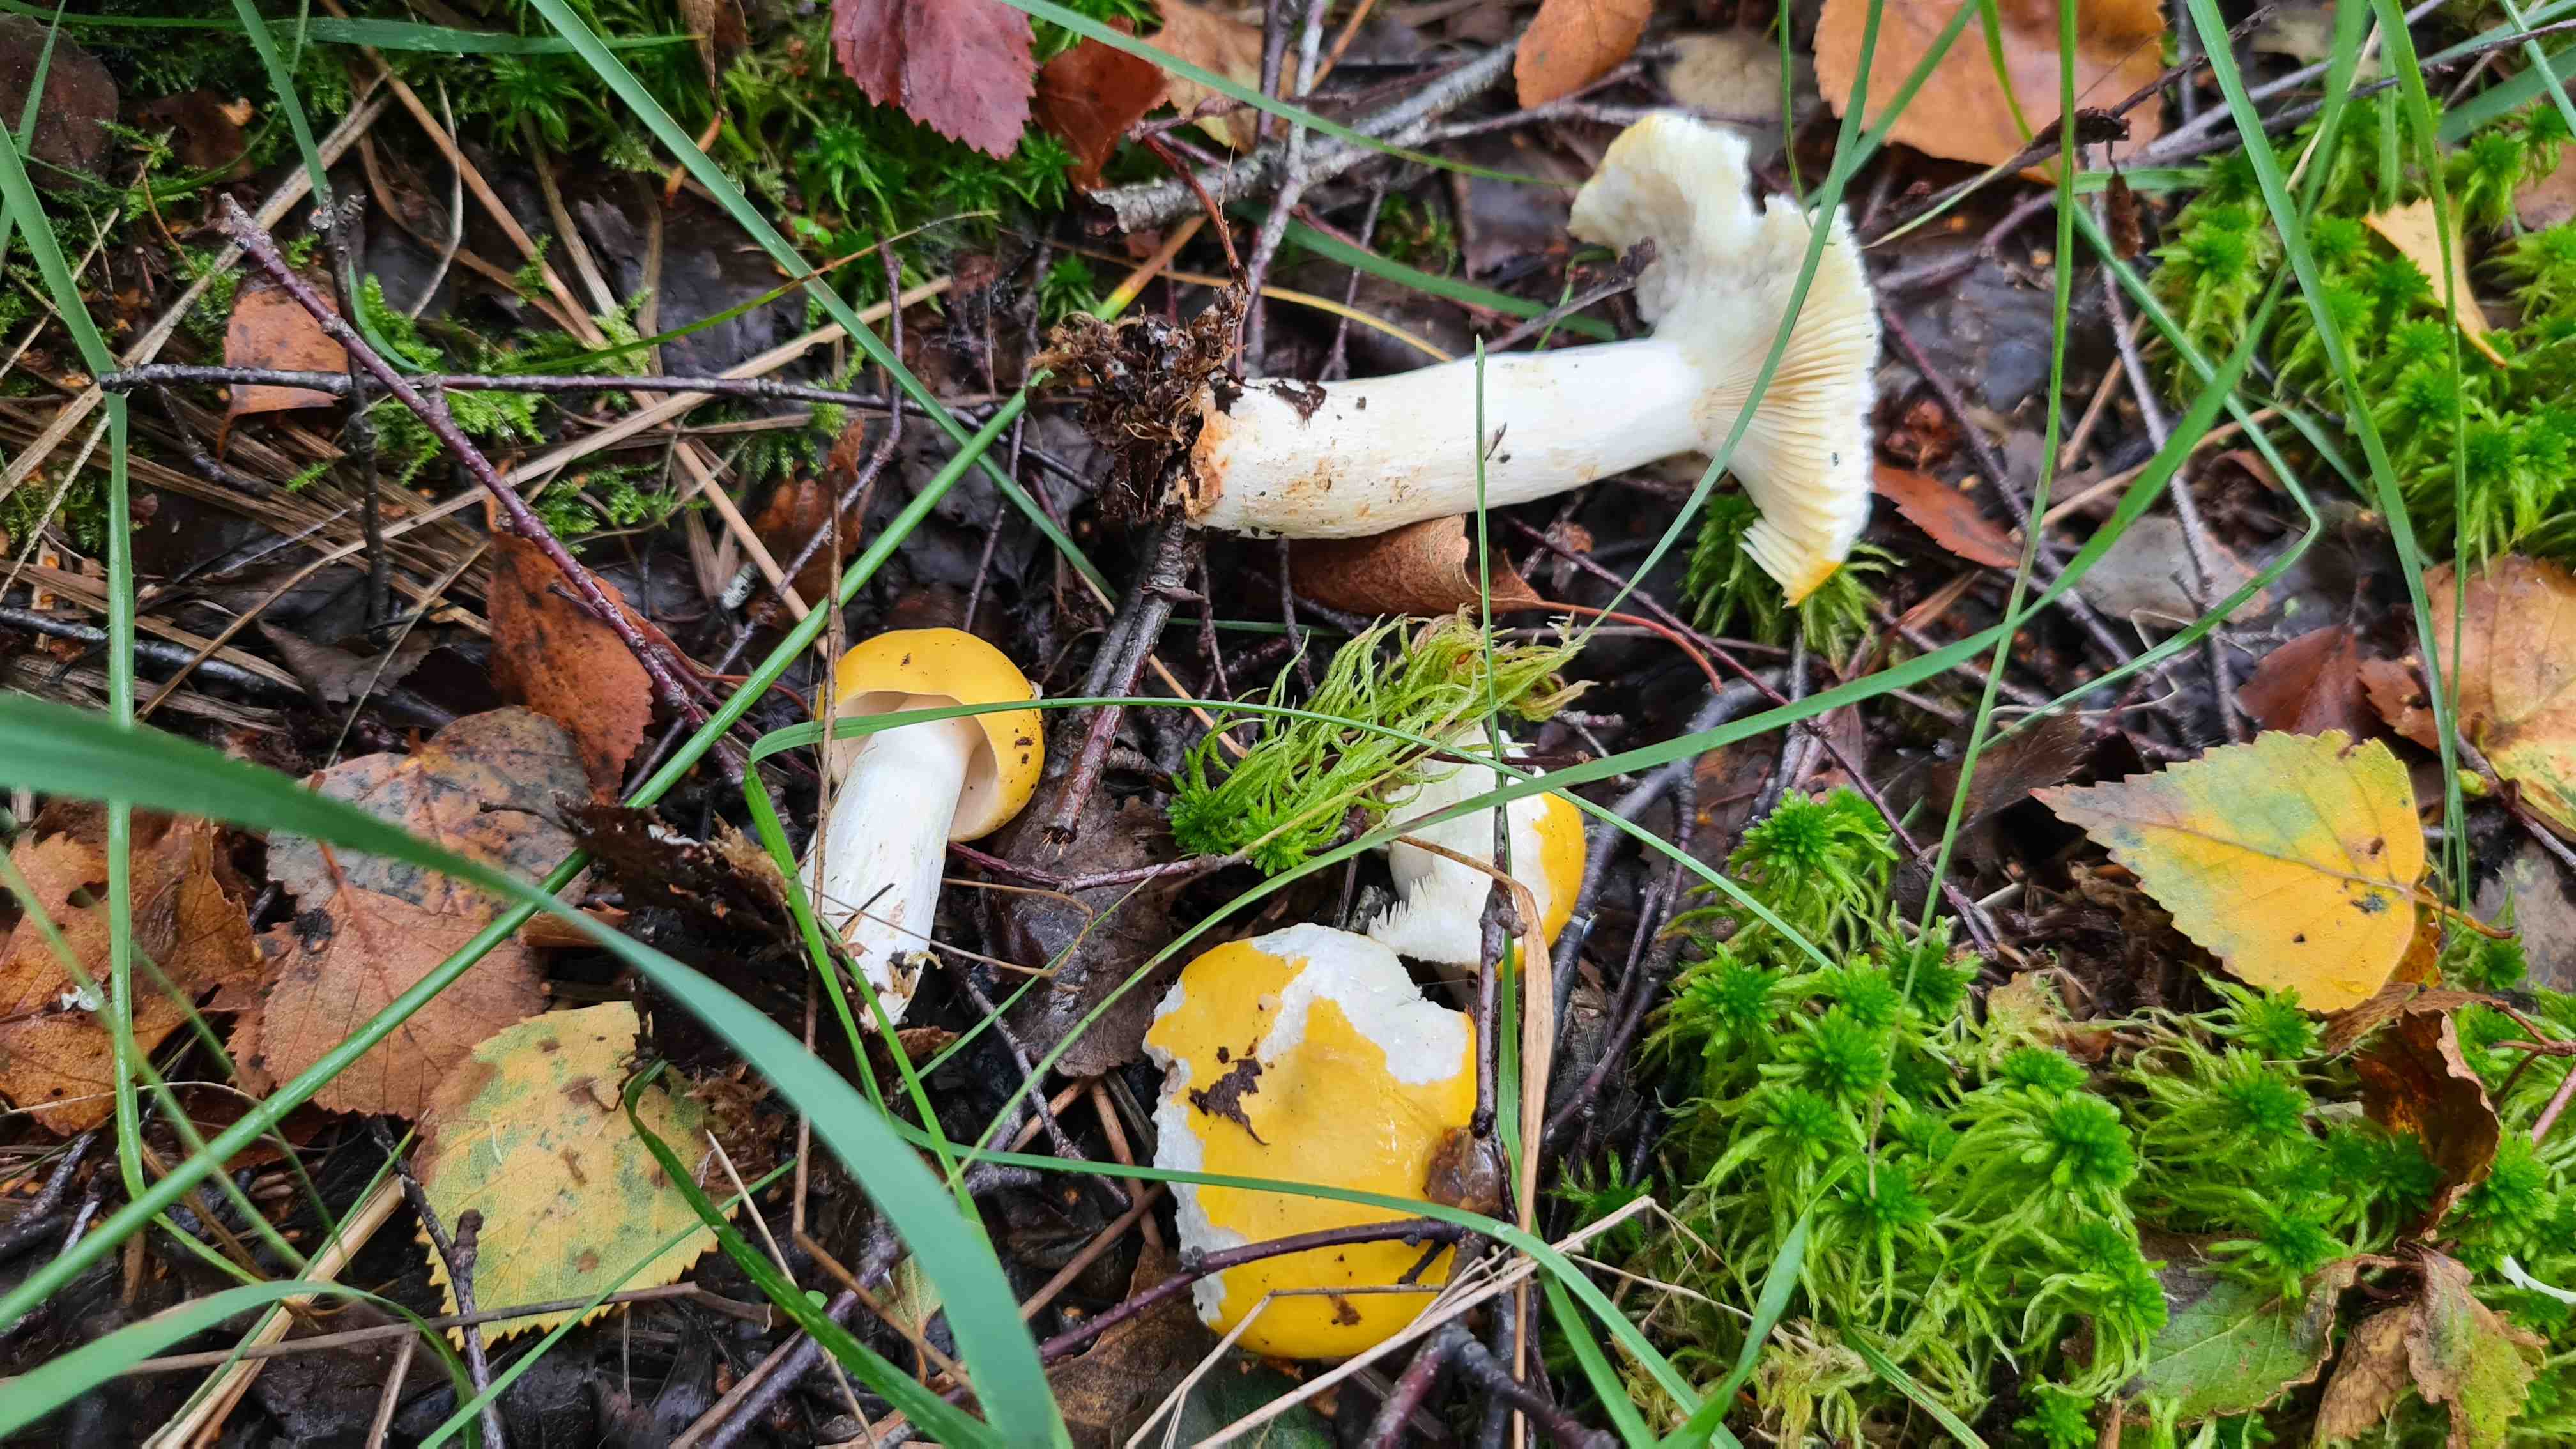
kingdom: Fungi
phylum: Basidiomycota
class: Agaricomycetes
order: Russulales
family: Russulaceae
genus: Russula
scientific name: Russula claroflava
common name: birke-skørhat
